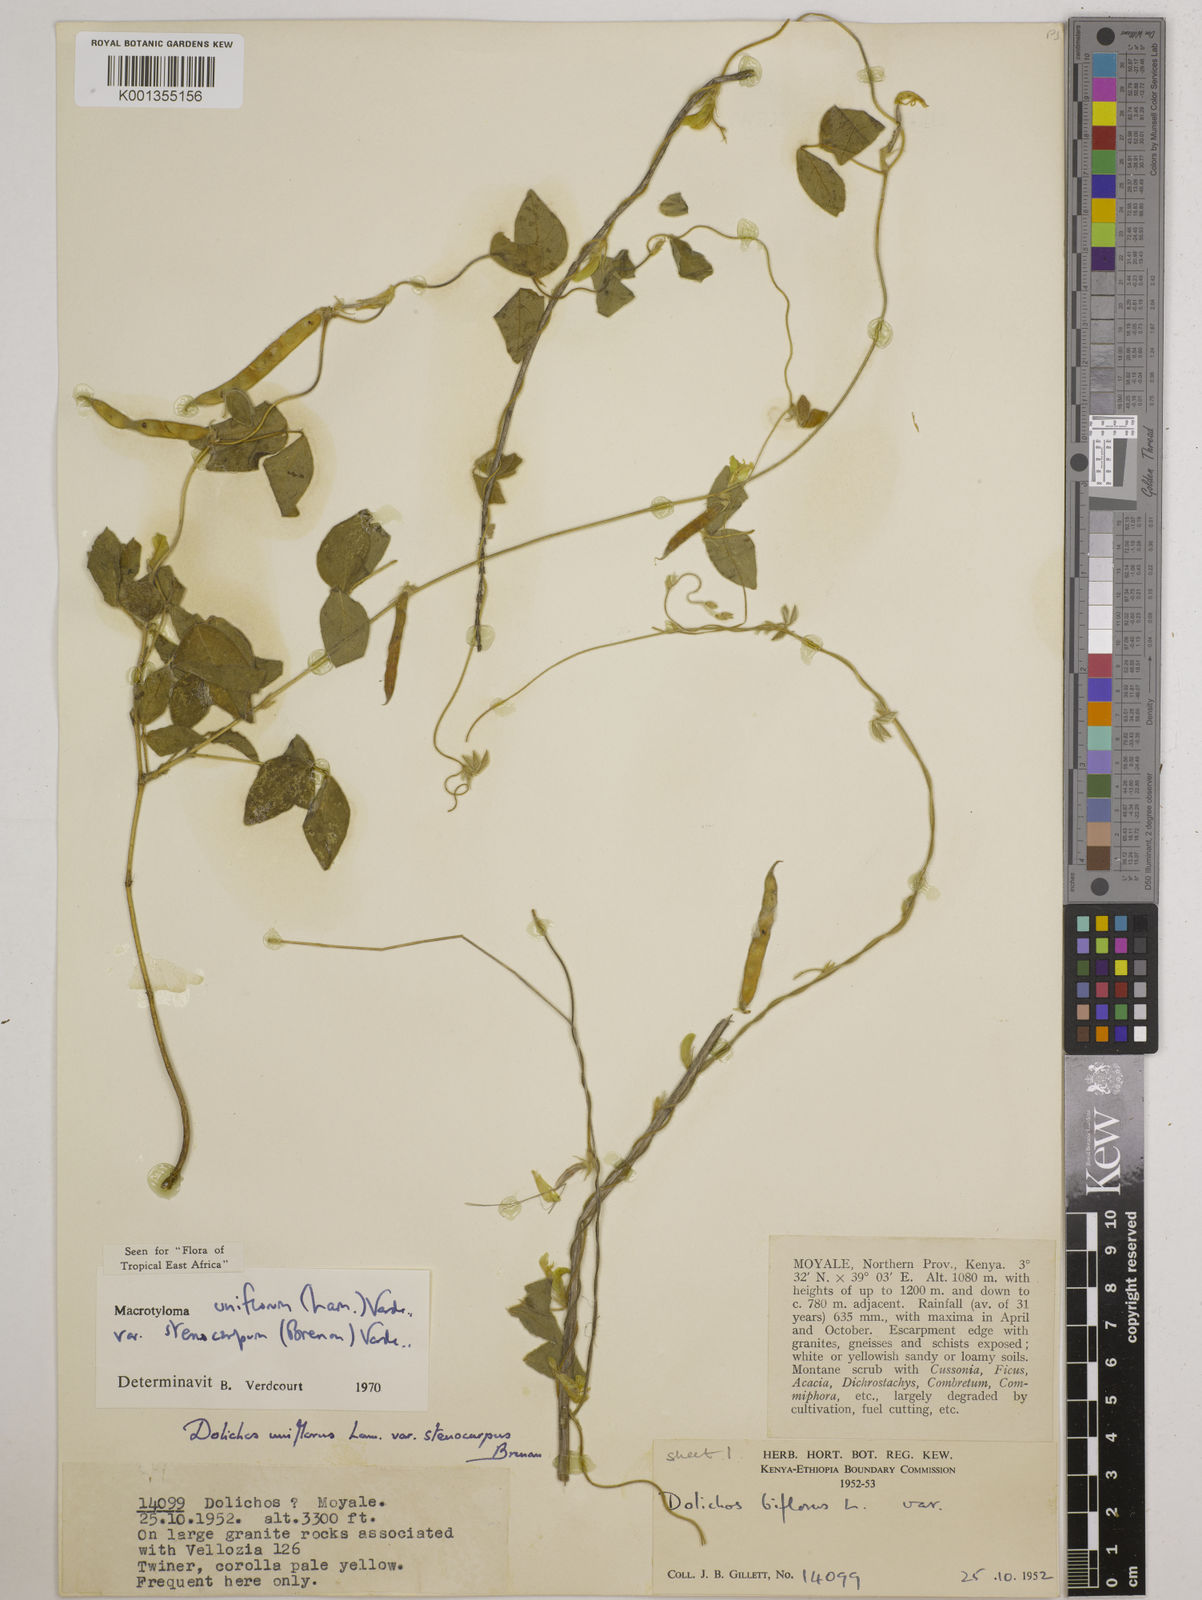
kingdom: Plantae
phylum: Tracheophyta
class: Magnoliopsida
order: Fabales
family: Fabaceae
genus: Macrotyloma
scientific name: Macrotyloma
